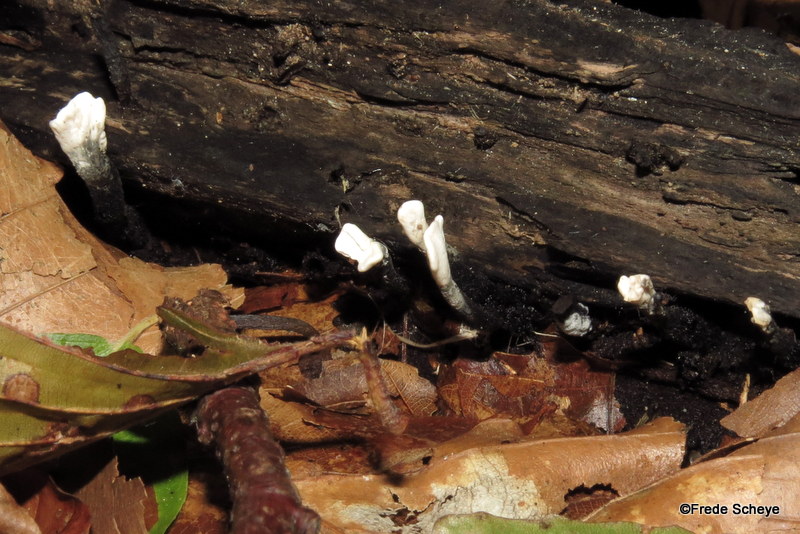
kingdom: Fungi
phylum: Ascomycota
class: Sordariomycetes
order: Xylariales
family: Xylariaceae
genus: Xylaria
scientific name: Xylaria hypoxylon
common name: grenet stødsvamp
